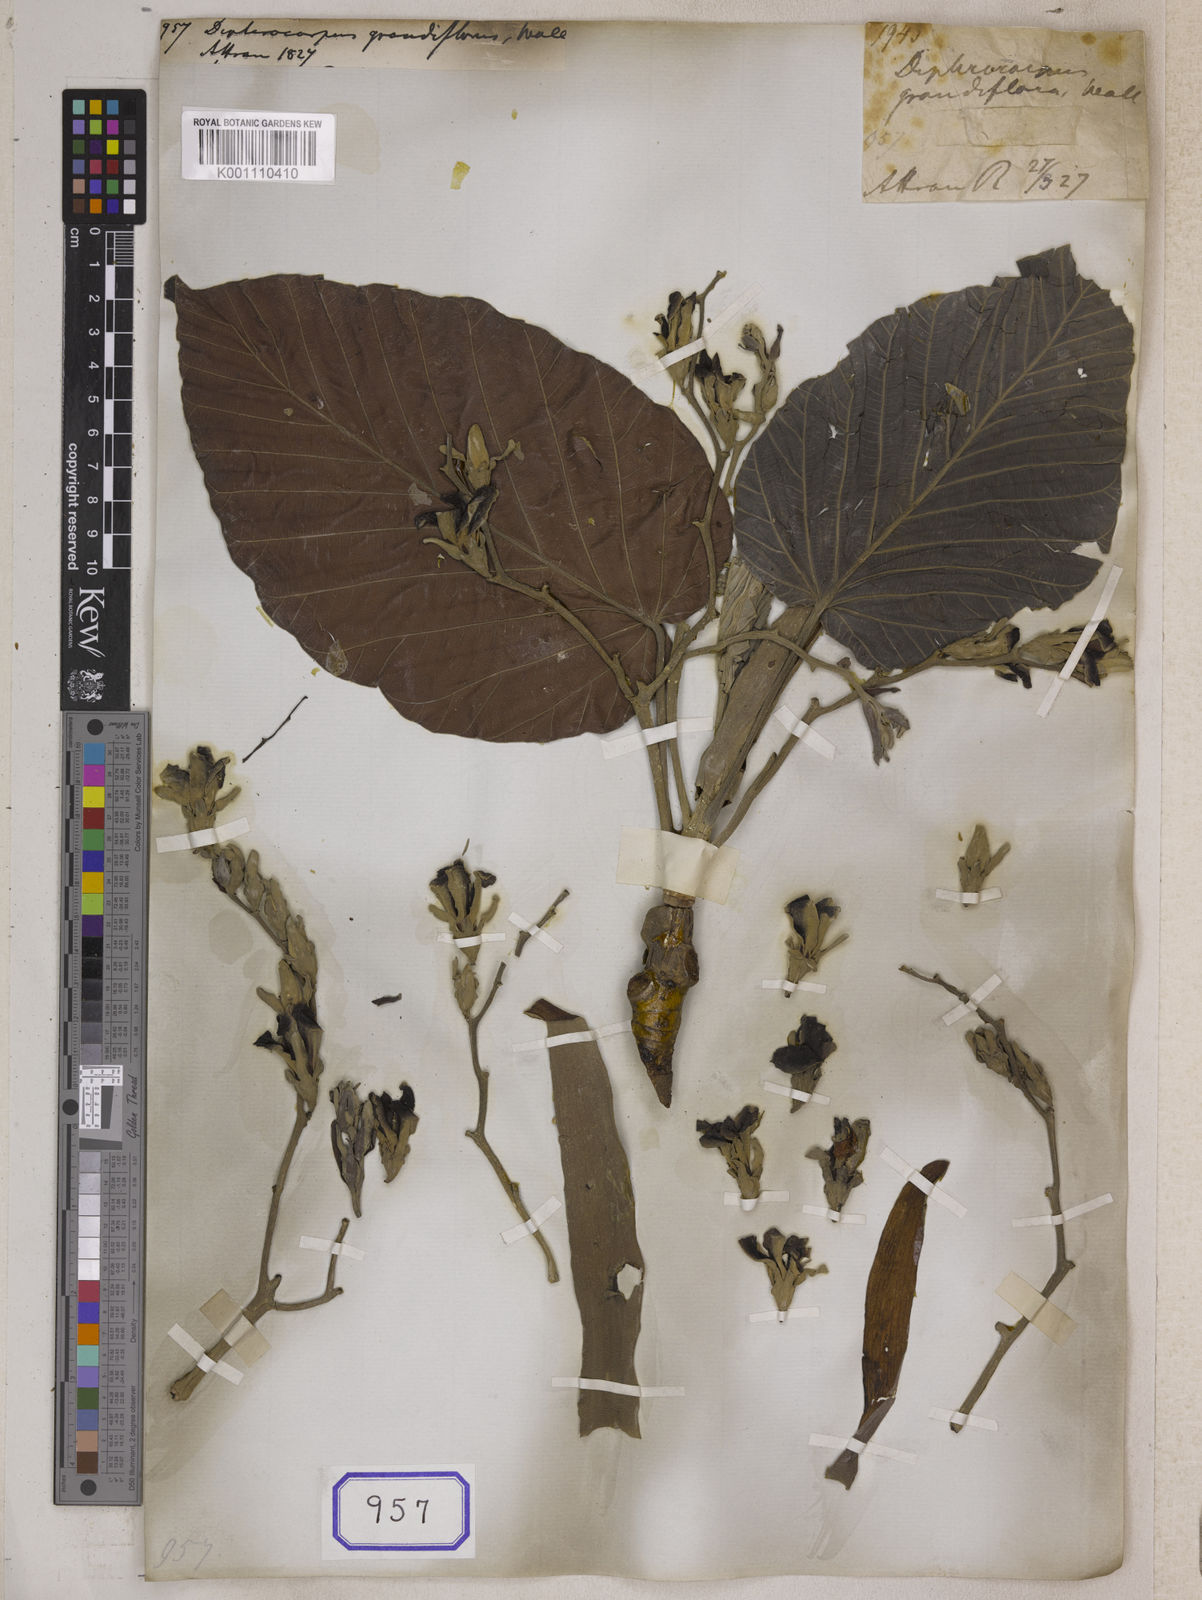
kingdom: Plantae
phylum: Tracheophyta
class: Magnoliopsida
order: Malvales
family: Dipterocarpaceae
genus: Dipterocarpus
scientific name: Dipterocarpus
